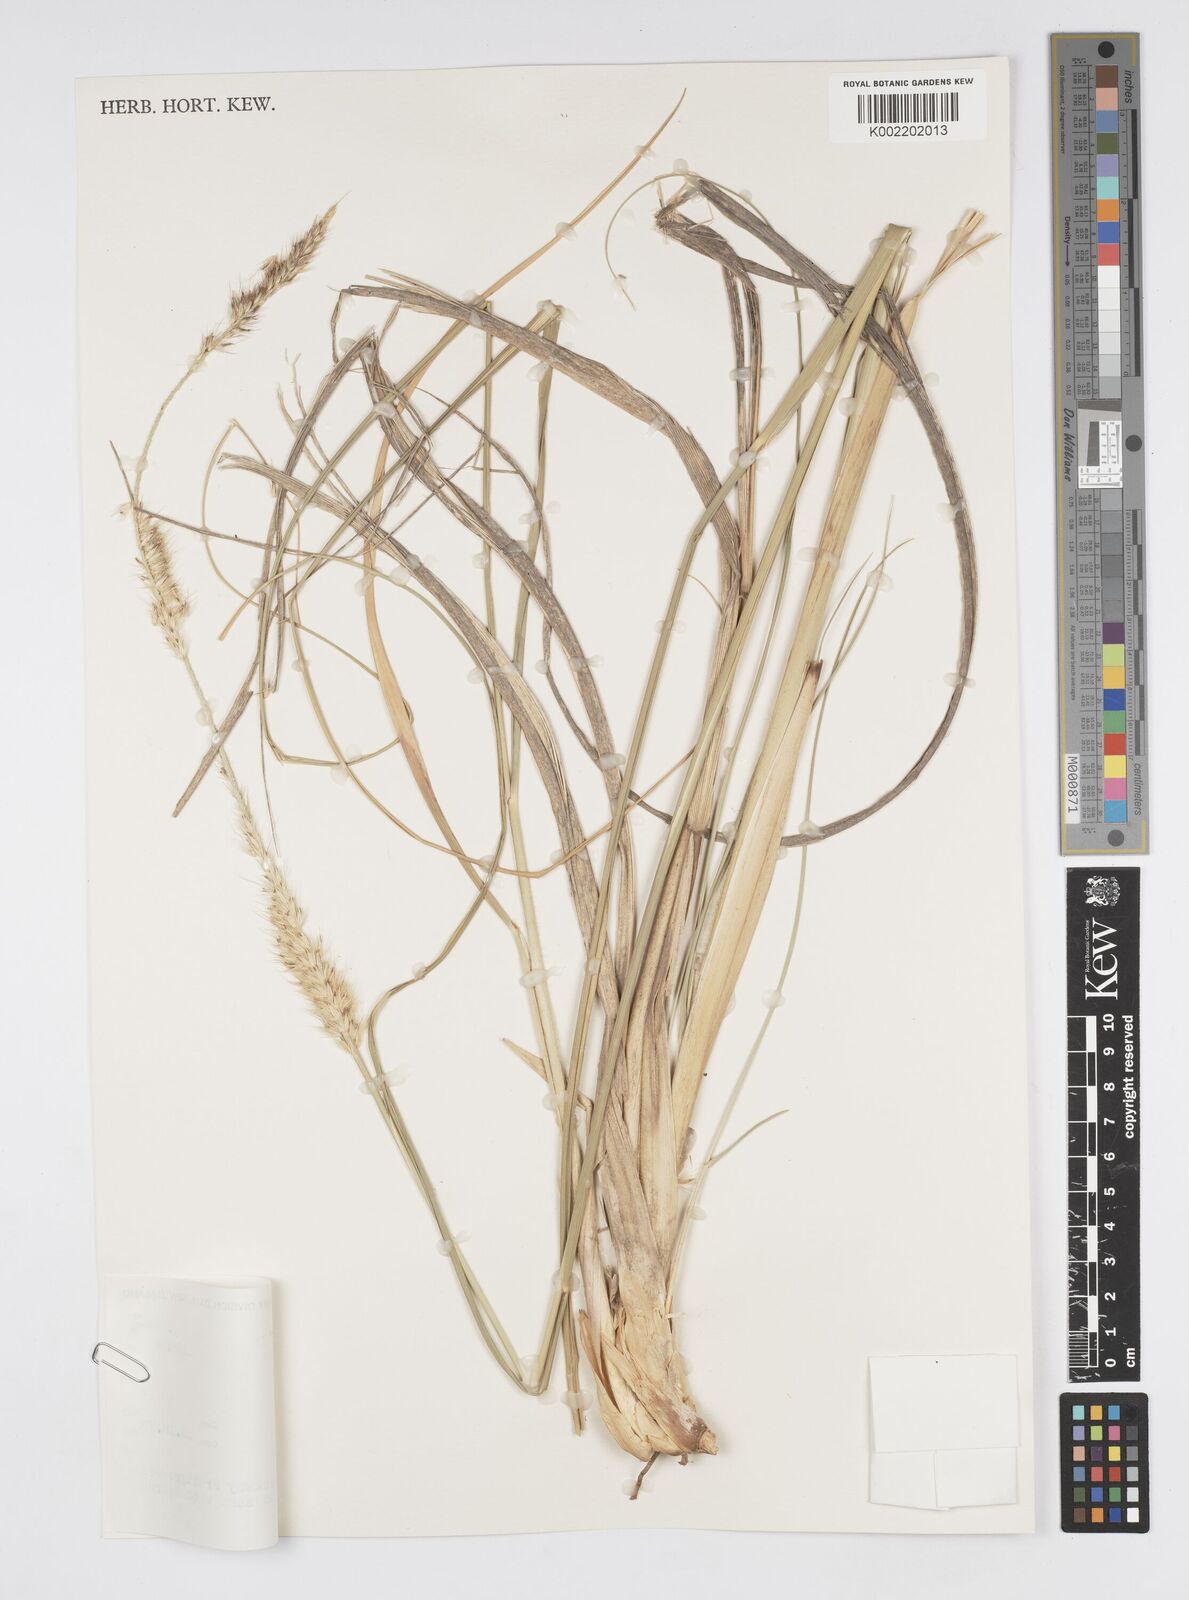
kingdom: Plantae
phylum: Tracheophyta
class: Liliopsida
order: Poales
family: Poaceae
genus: Cenchrus
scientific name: Cenchrus caudatus
